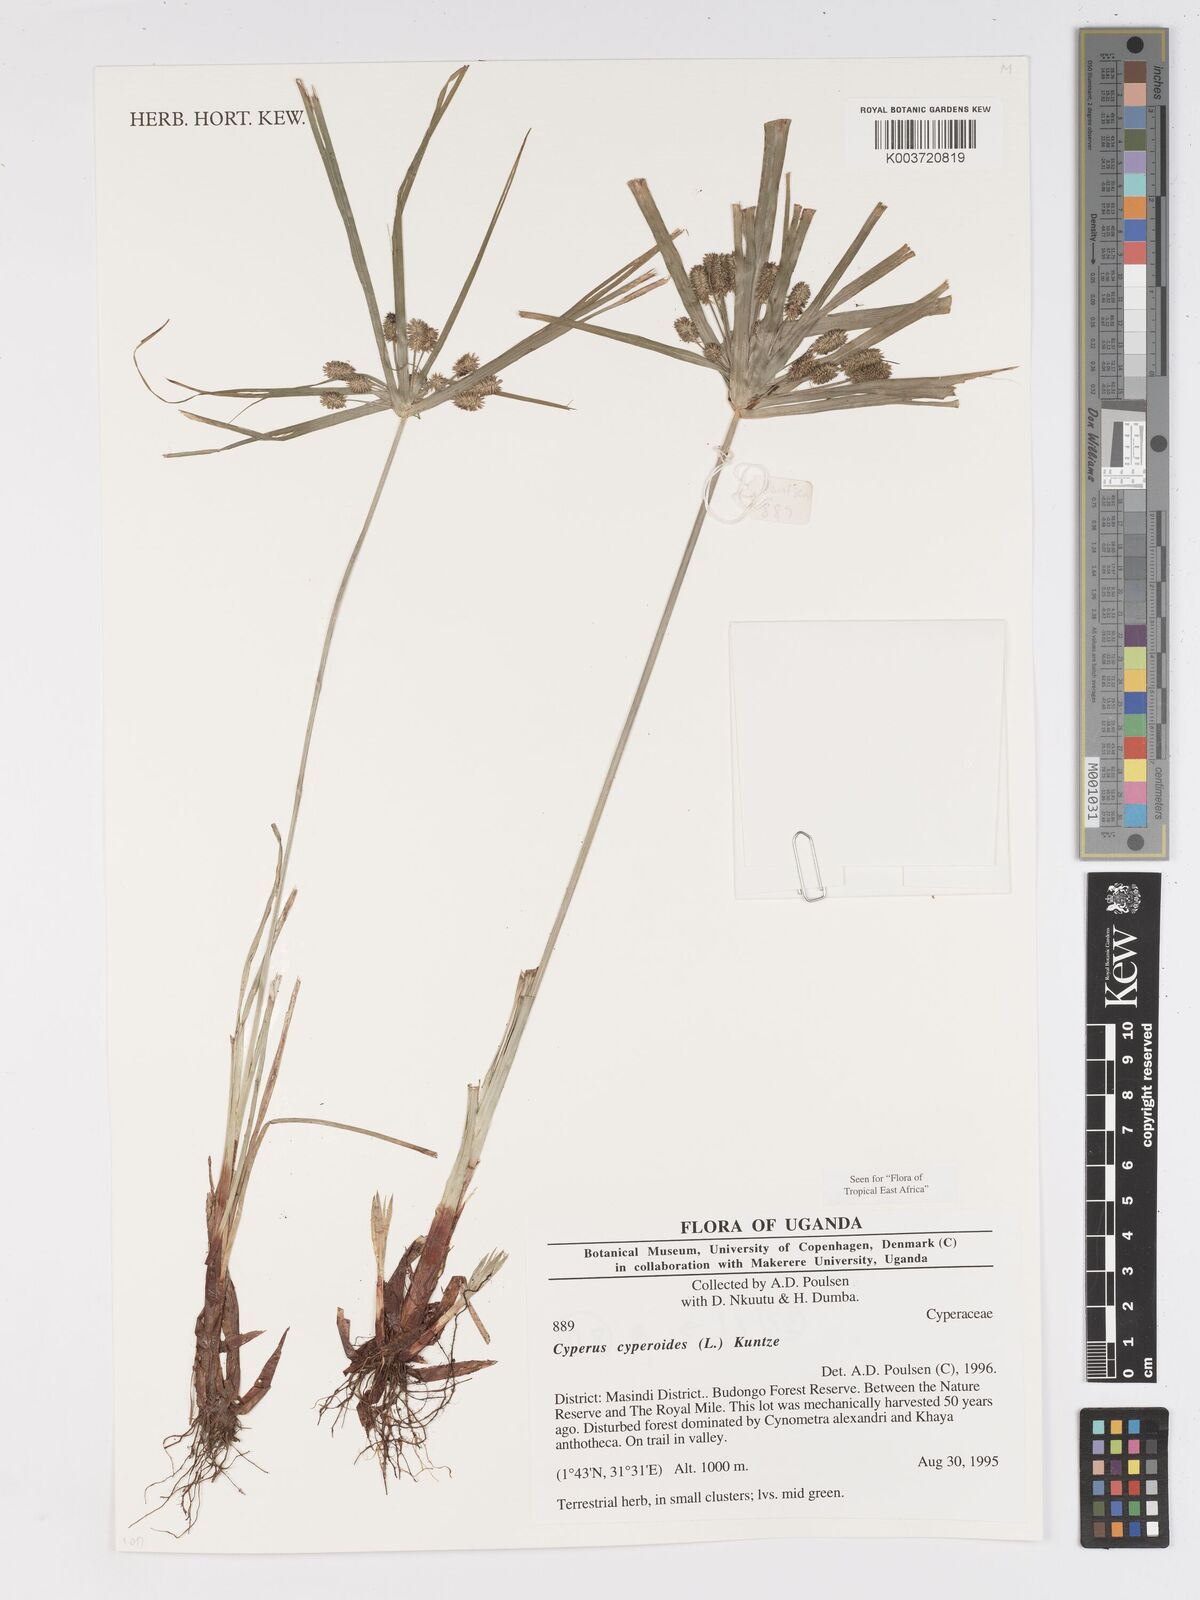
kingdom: Plantae
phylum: Tracheophyta
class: Liliopsida
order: Poales
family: Cyperaceae
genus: Cyperus
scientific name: Cyperus cyperoides
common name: Pacific island flat sedge
